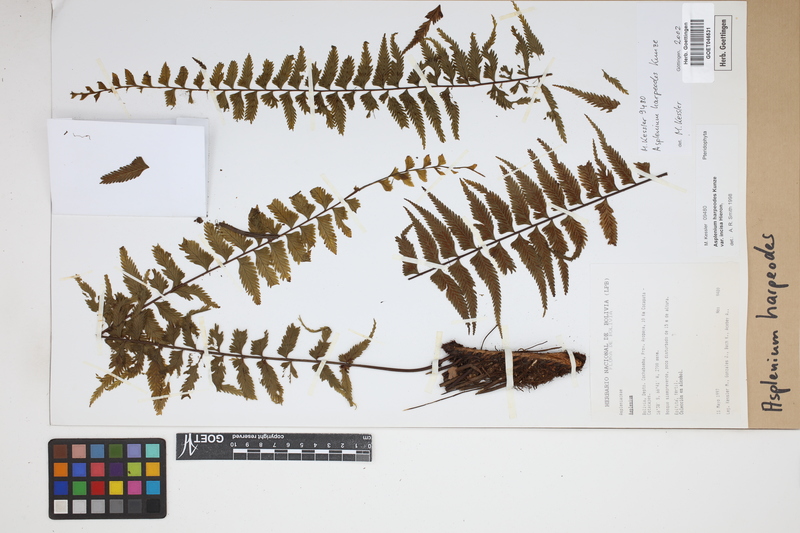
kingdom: Plantae
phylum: Tracheophyta
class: Polypodiopsida
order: Polypodiales
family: Aspleniaceae
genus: Asplenium
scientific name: Asplenium harpeodes
